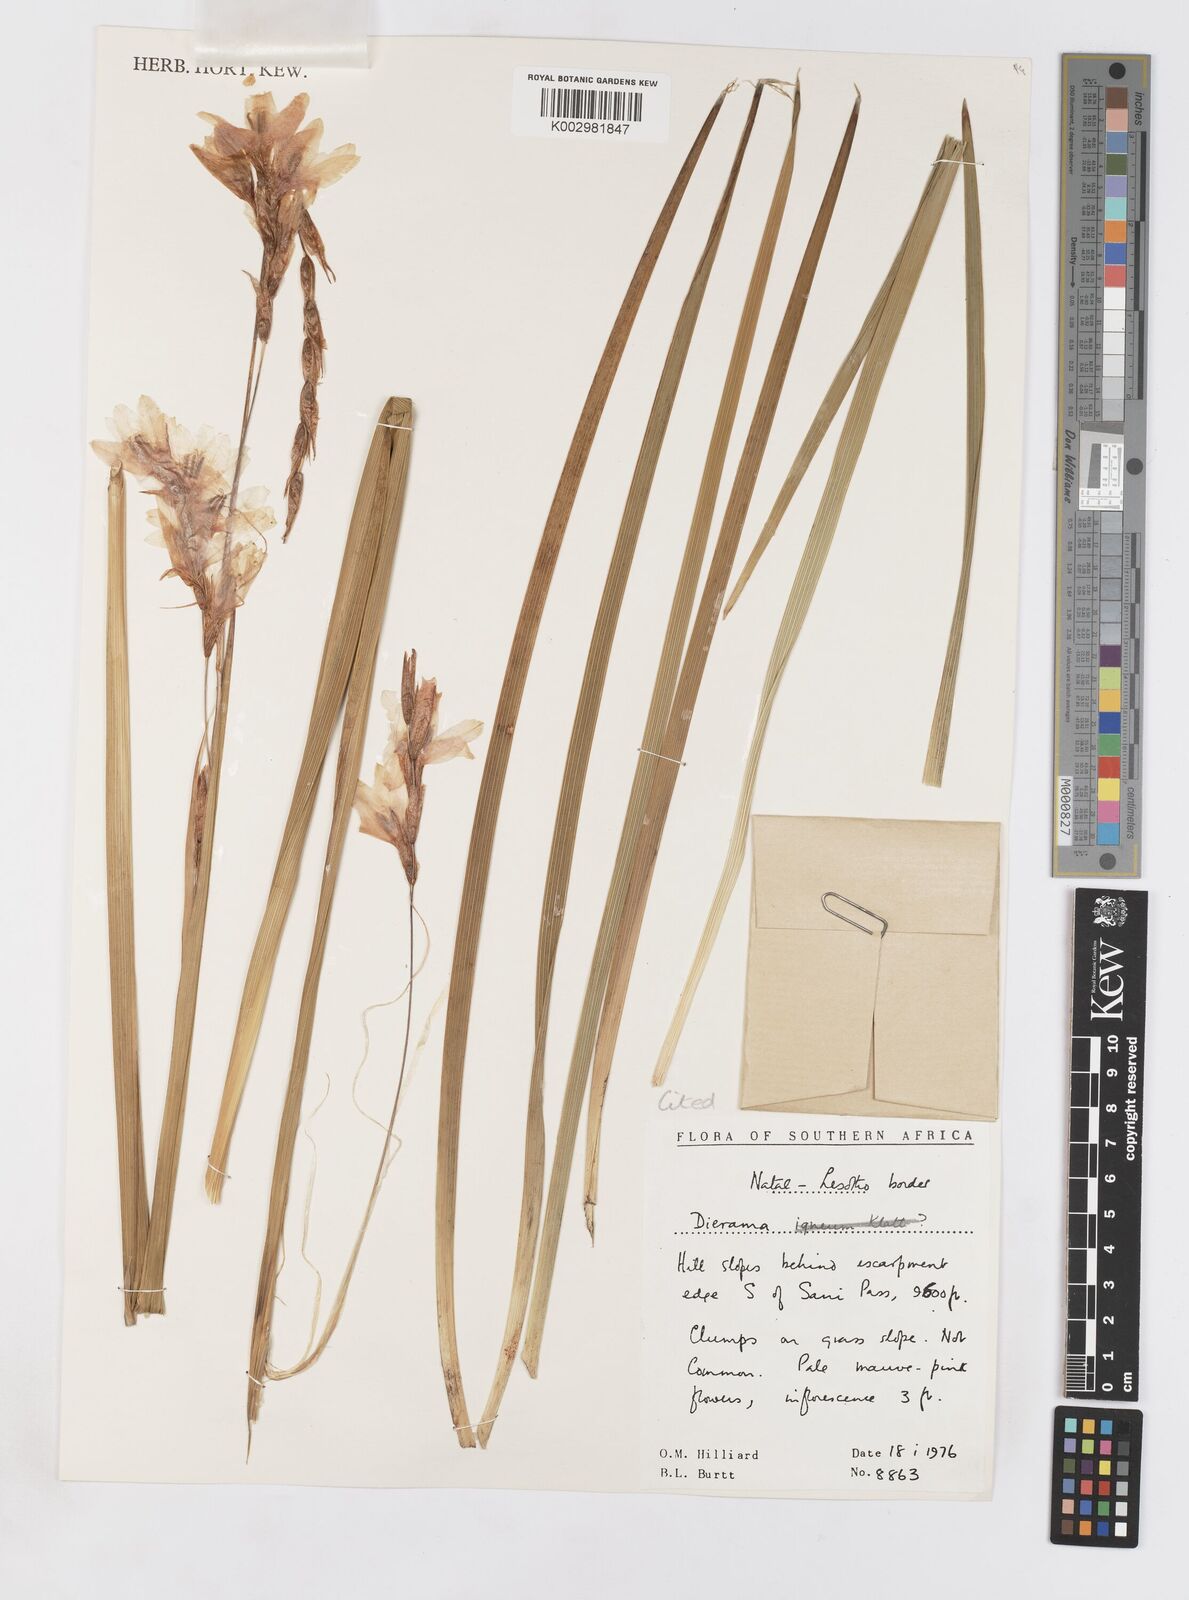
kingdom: Plantae
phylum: Tracheophyta
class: Liliopsida
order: Asparagales
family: Iridaceae
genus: Dierama
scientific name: Dierama robustum
